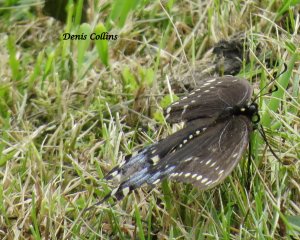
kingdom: Animalia
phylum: Arthropoda
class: Insecta
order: Lepidoptera
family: Papilionidae
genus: Papilio
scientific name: Papilio polyxenes
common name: Black Swallowtail
